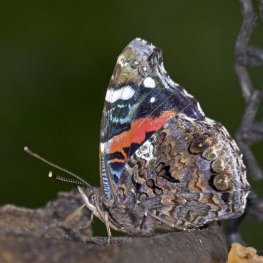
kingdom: Animalia
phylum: Arthropoda
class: Insecta
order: Lepidoptera
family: Nymphalidae
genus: Vanessa
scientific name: Vanessa atalanta
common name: Red Admiral
